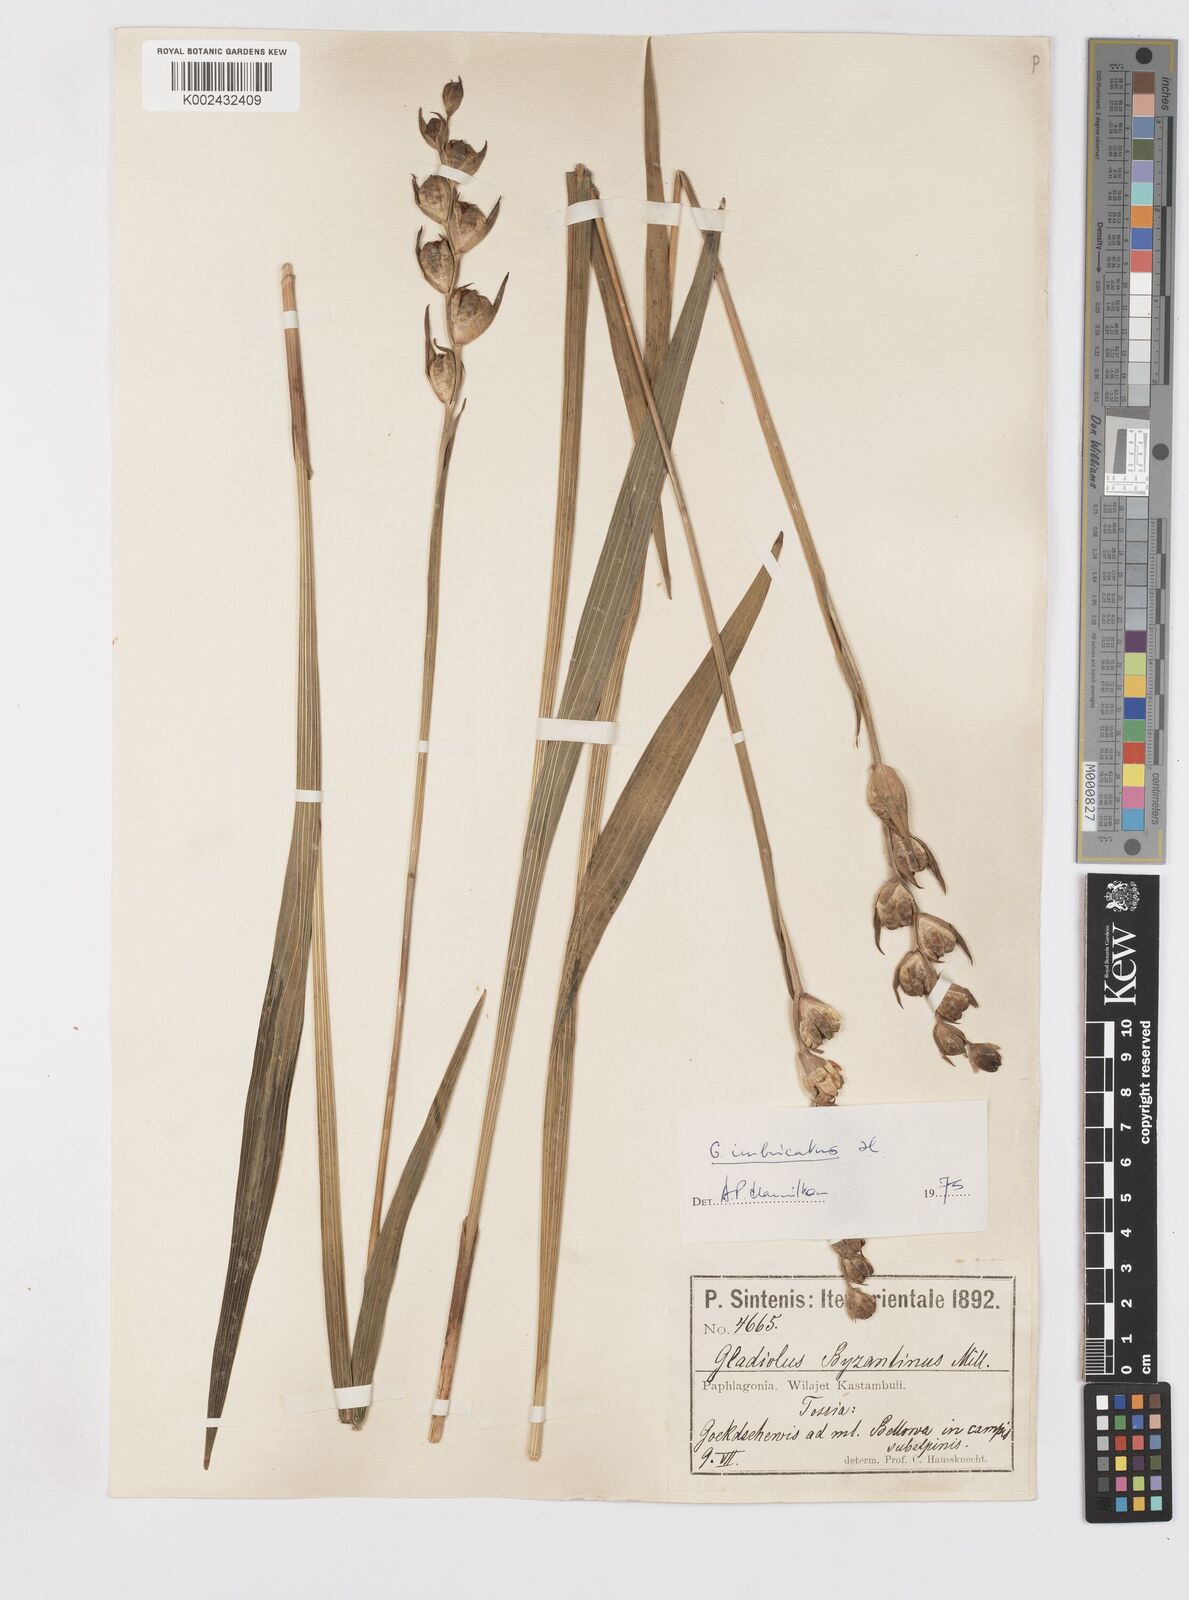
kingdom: Plantae
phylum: Tracheophyta
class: Liliopsida
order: Asparagales
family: Iridaceae
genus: Gladiolus
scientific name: Gladiolus kotschyanus
